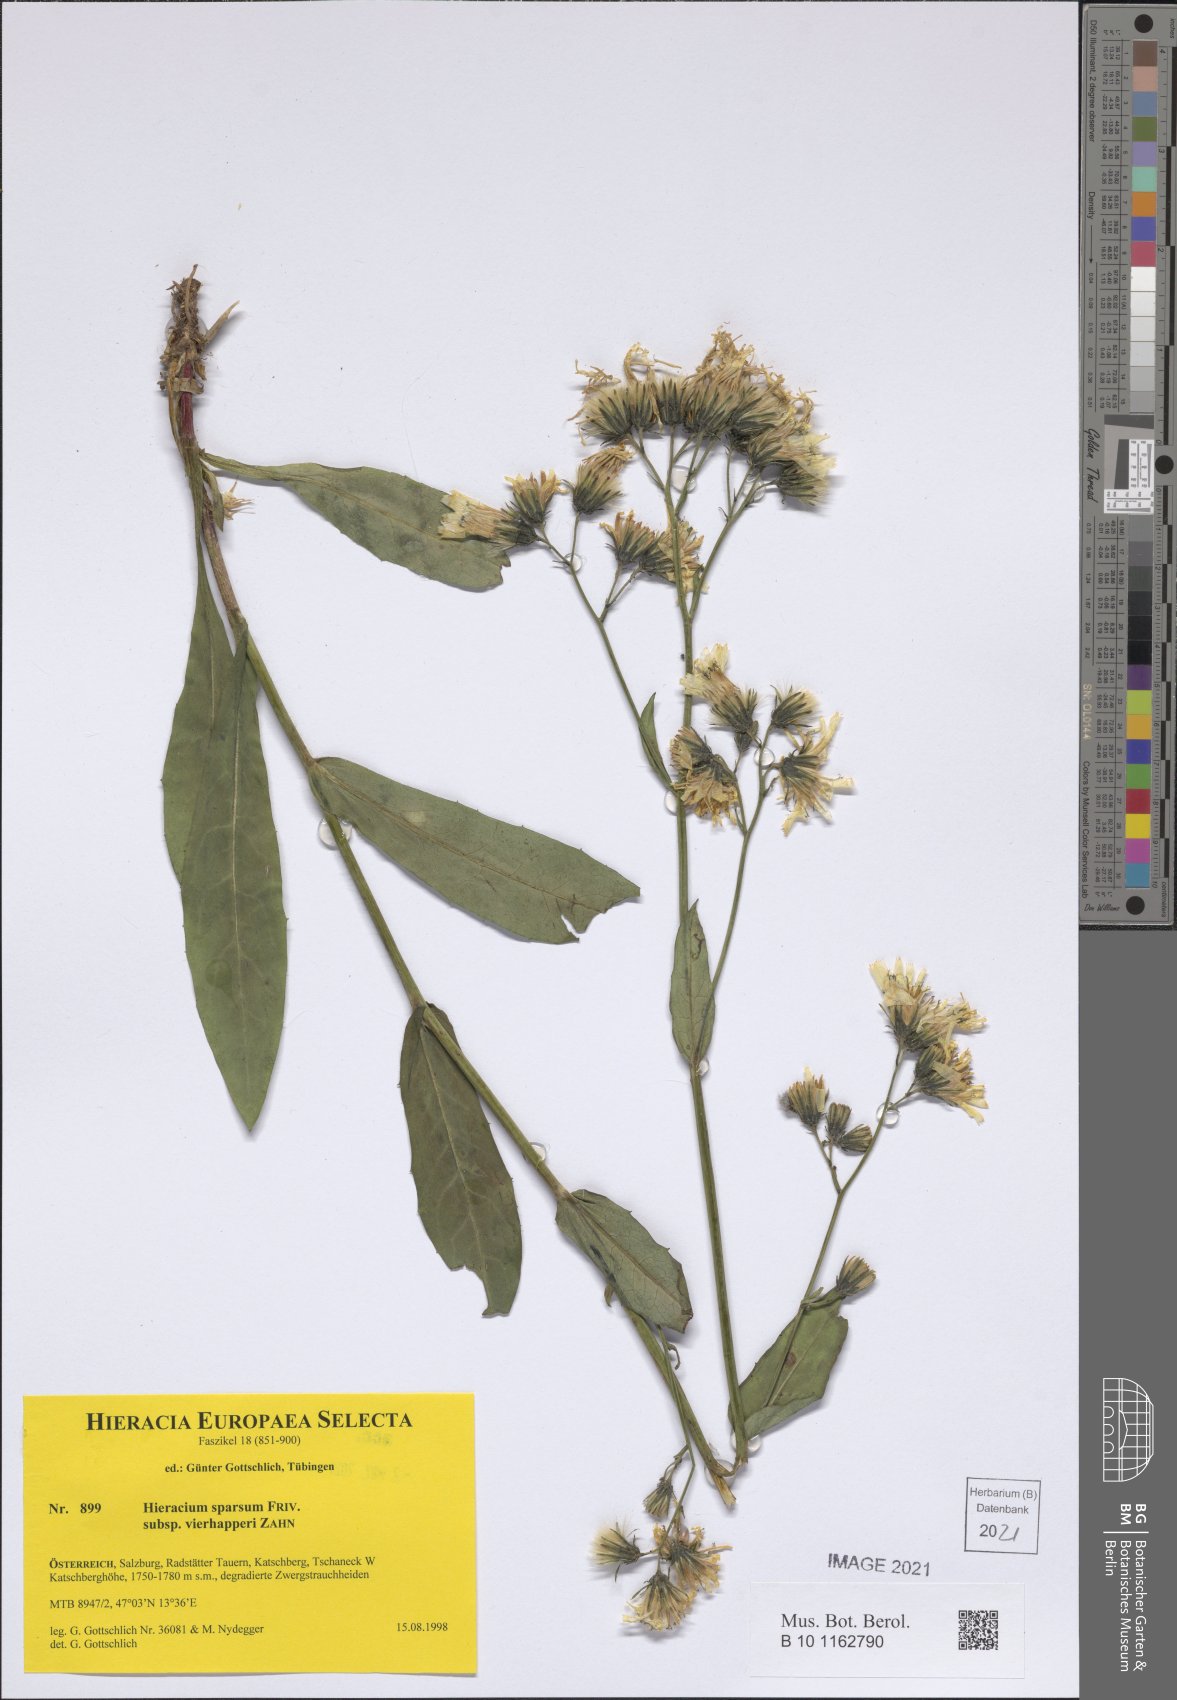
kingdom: Plantae
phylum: Tracheophyta
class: Magnoliopsida
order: Asterales
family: Asteraceae
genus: Hieracium
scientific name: Hieracium sparsum
